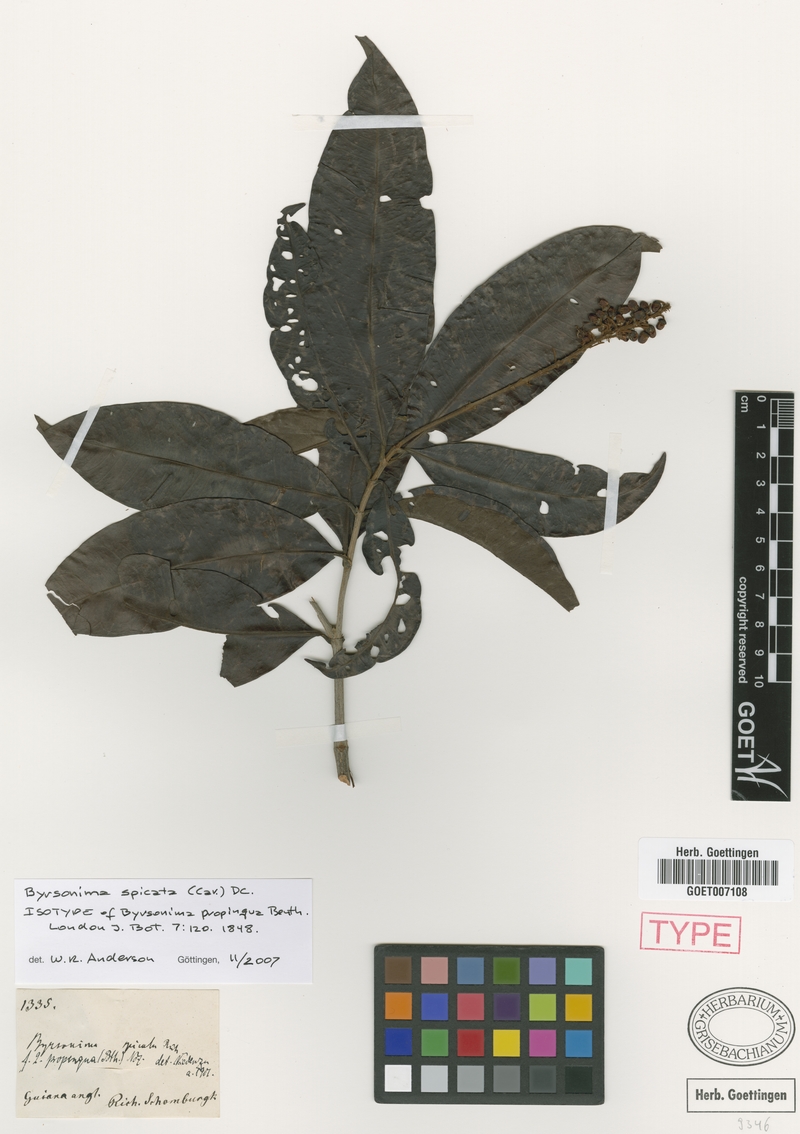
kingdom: Plantae
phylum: Tracheophyta
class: Magnoliopsida
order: Malpighiales
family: Malpighiaceae
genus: Byrsonima
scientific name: Byrsonima spicata
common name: Murixi-bark-tree
